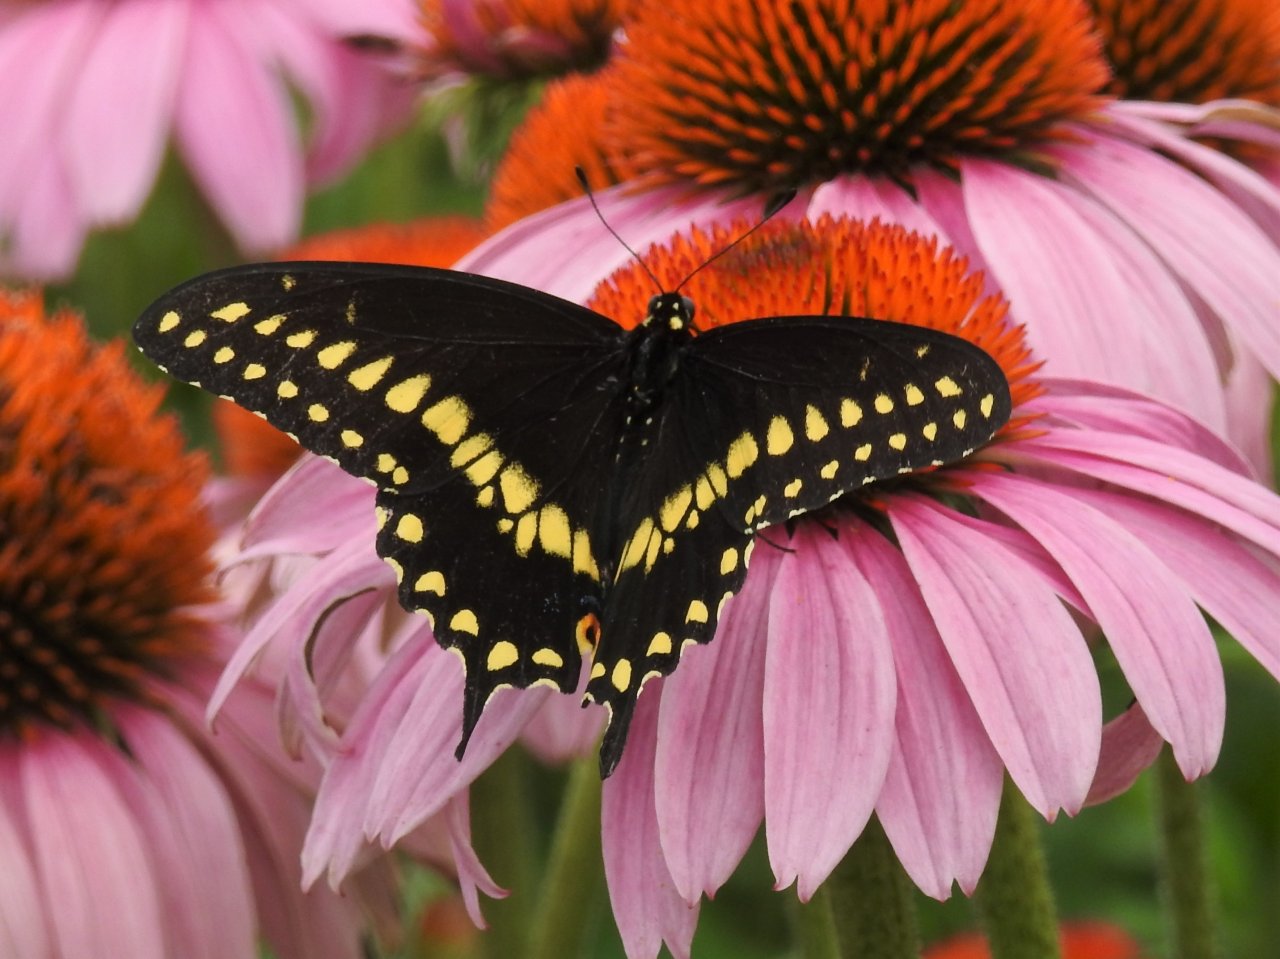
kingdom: Animalia
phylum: Arthropoda
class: Insecta
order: Lepidoptera
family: Papilionidae
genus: Papilio
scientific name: Papilio polyxenes
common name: Black Swallowtail
